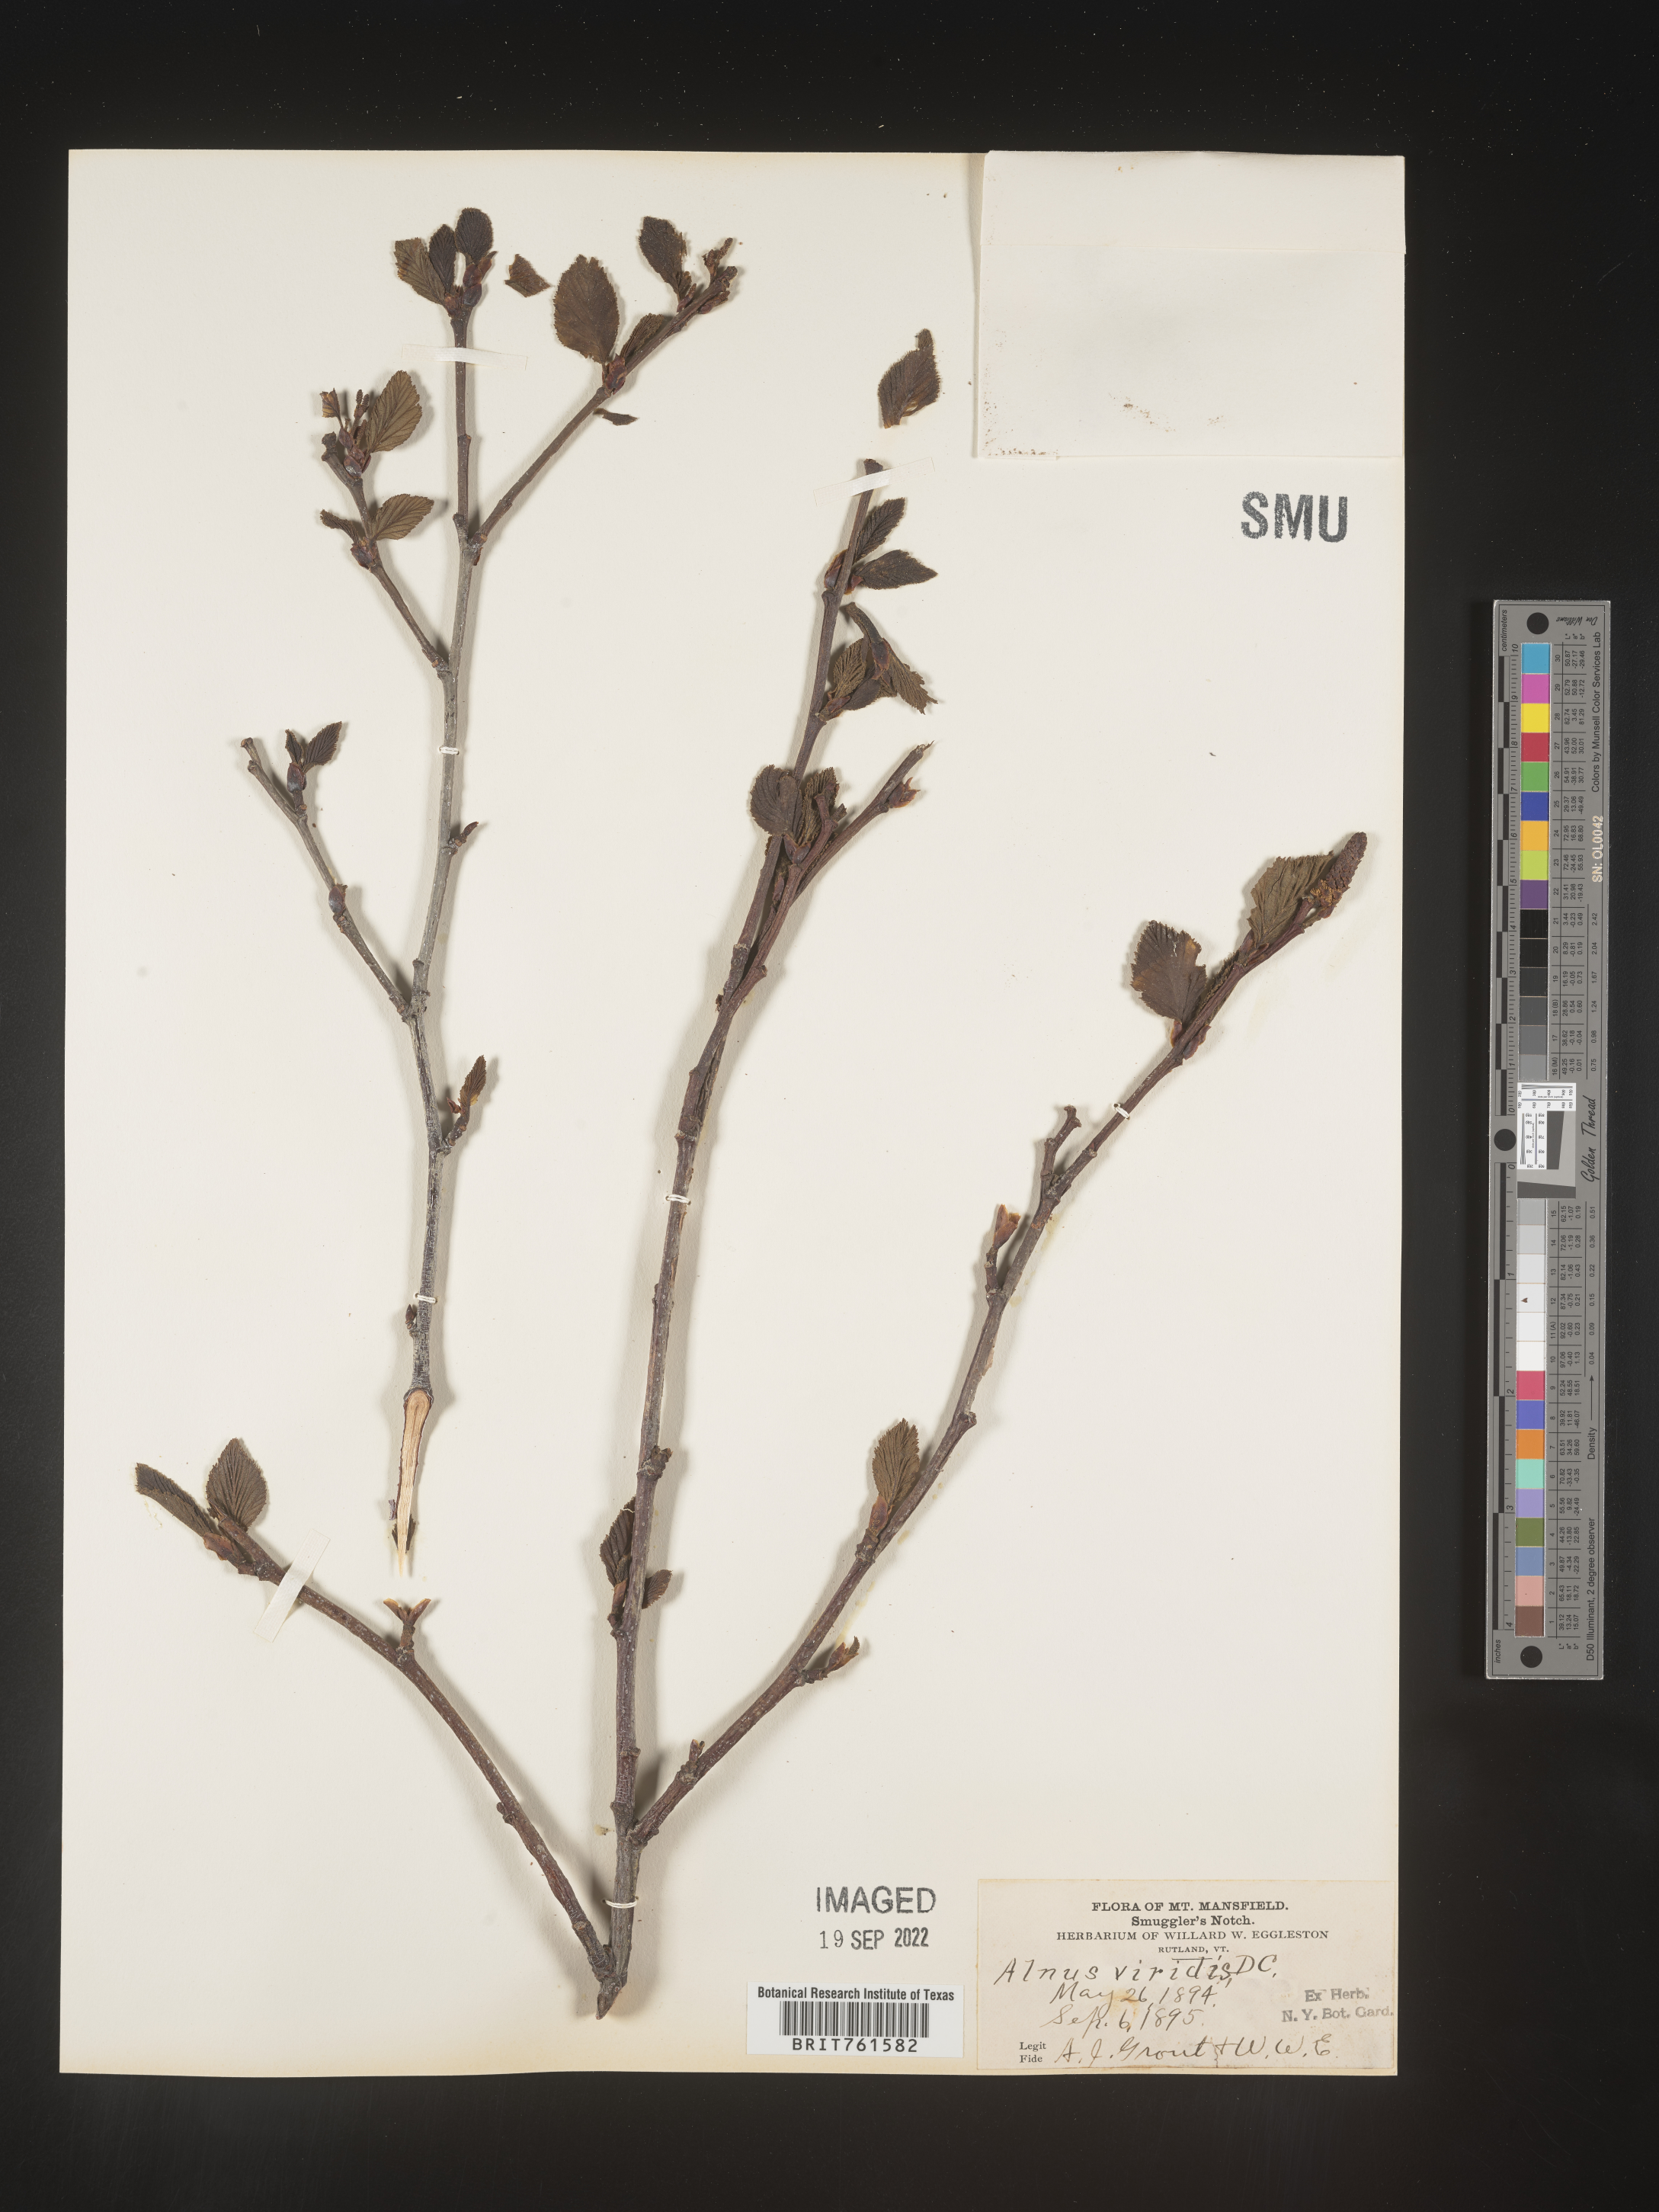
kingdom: Plantae
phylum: Tracheophyta
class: Magnoliopsida
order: Fagales
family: Betulaceae
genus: Alnus
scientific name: Alnus alnobetula
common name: Green alder
